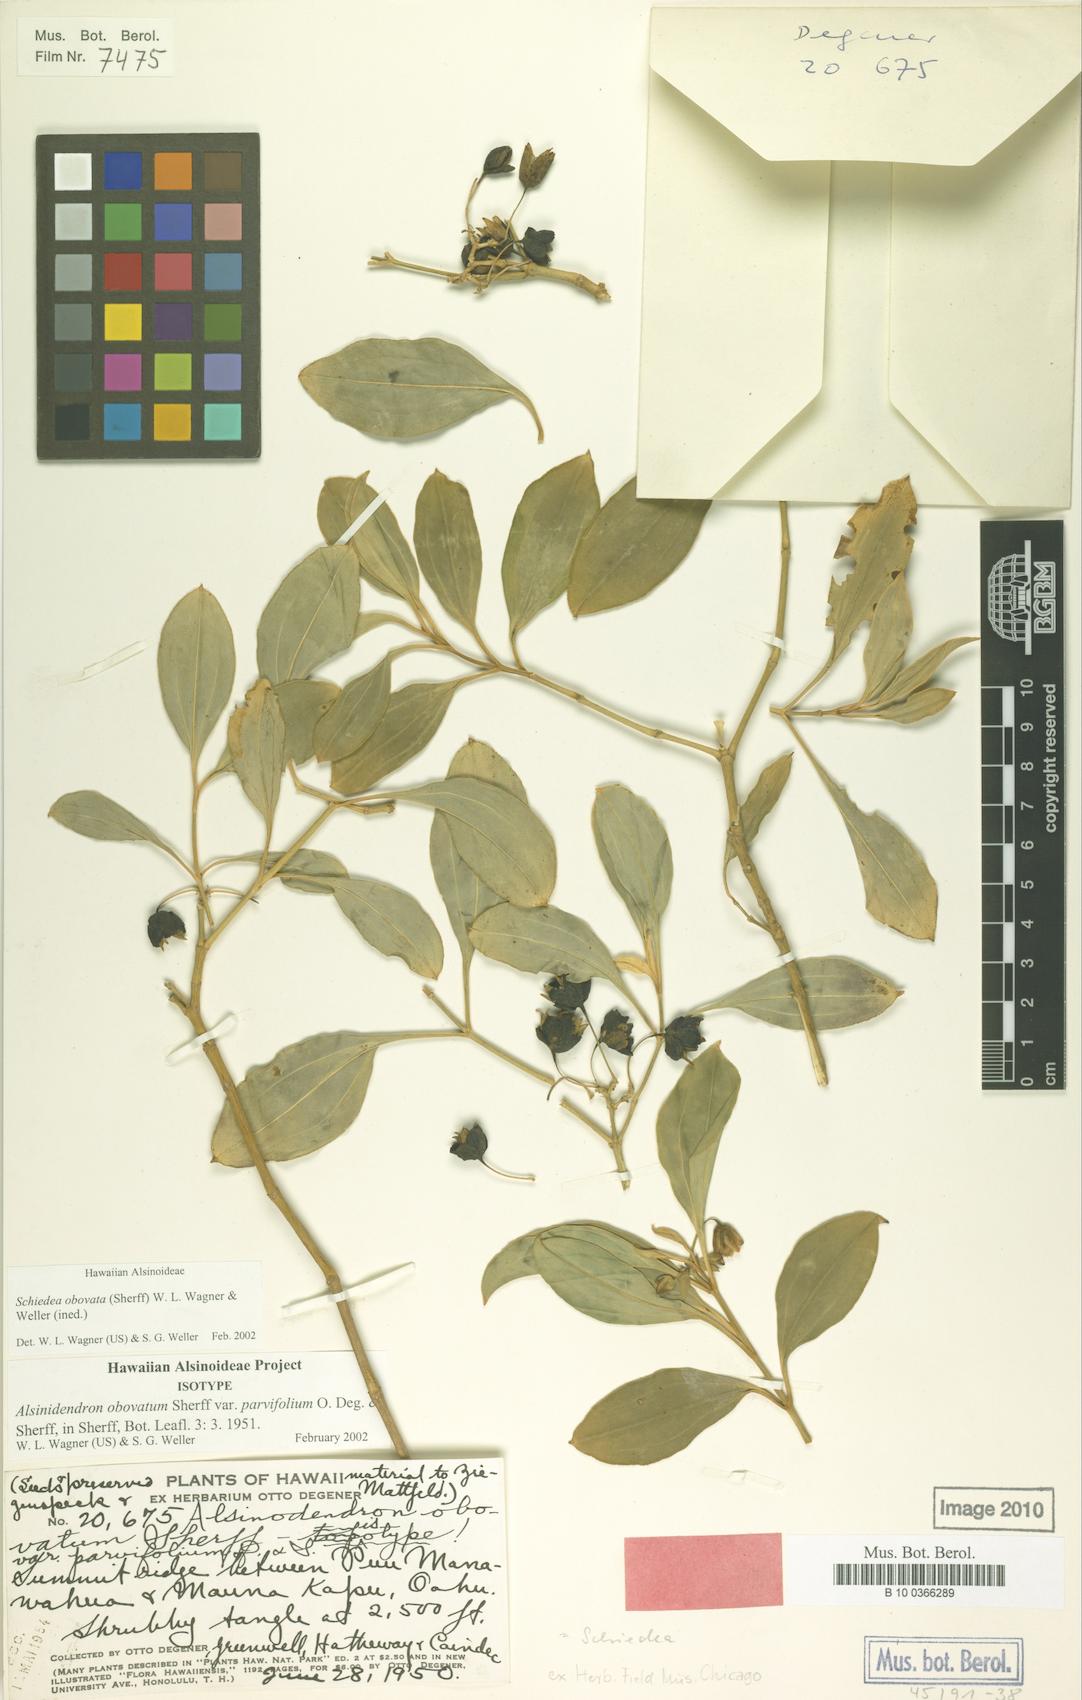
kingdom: Plantae
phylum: Tracheophyta
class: Magnoliopsida
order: Caryophyllales
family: Caryophyllaceae
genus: Schiedea
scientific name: Schiedea obovata
